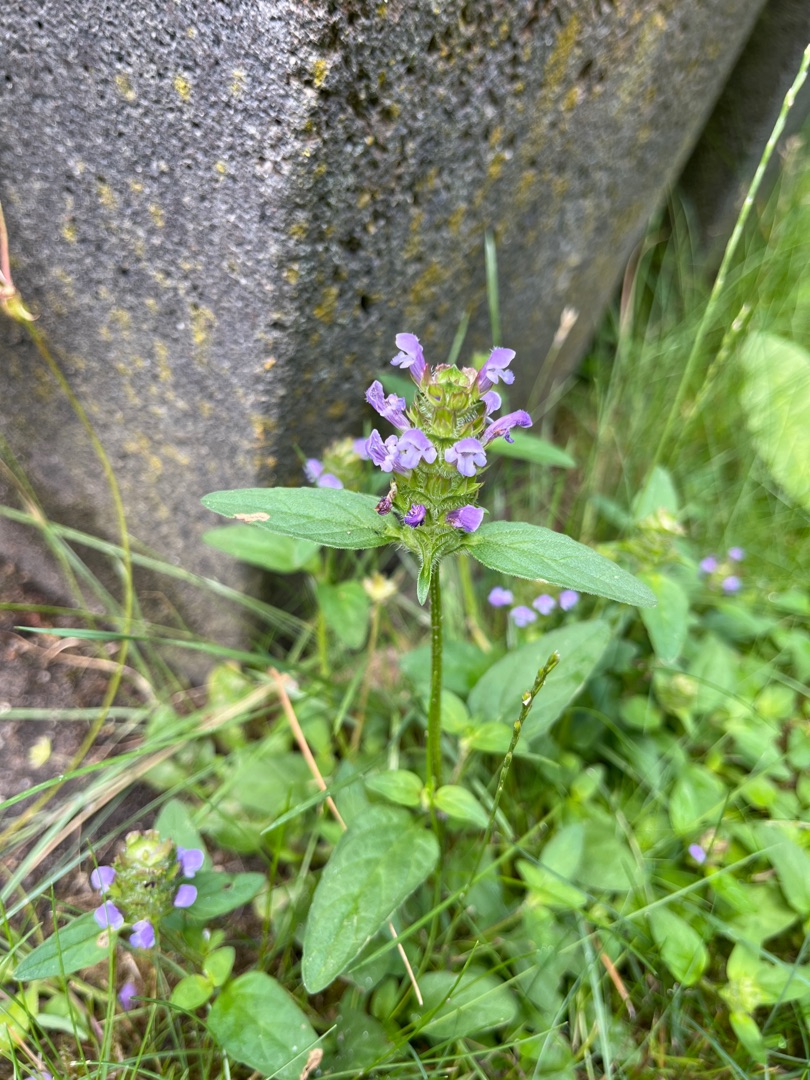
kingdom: Plantae
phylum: Tracheophyta
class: Magnoliopsida
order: Lamiales
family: Lamiaceae
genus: Prunella
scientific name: Prunella vulgaris
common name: Almindelig brunelle
